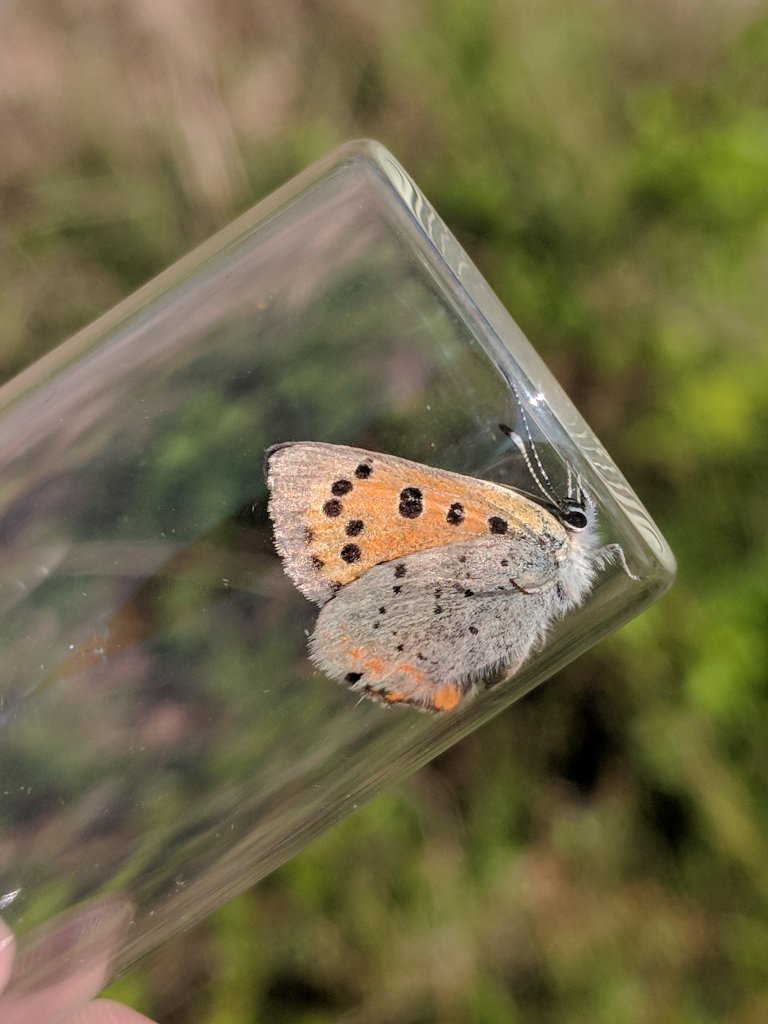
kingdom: Animalia
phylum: Arthropoda
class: Insecta
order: Lepidoptera
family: Lycaenidae
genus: Lycaena
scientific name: Lycaena phlaeas
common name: American Copper
